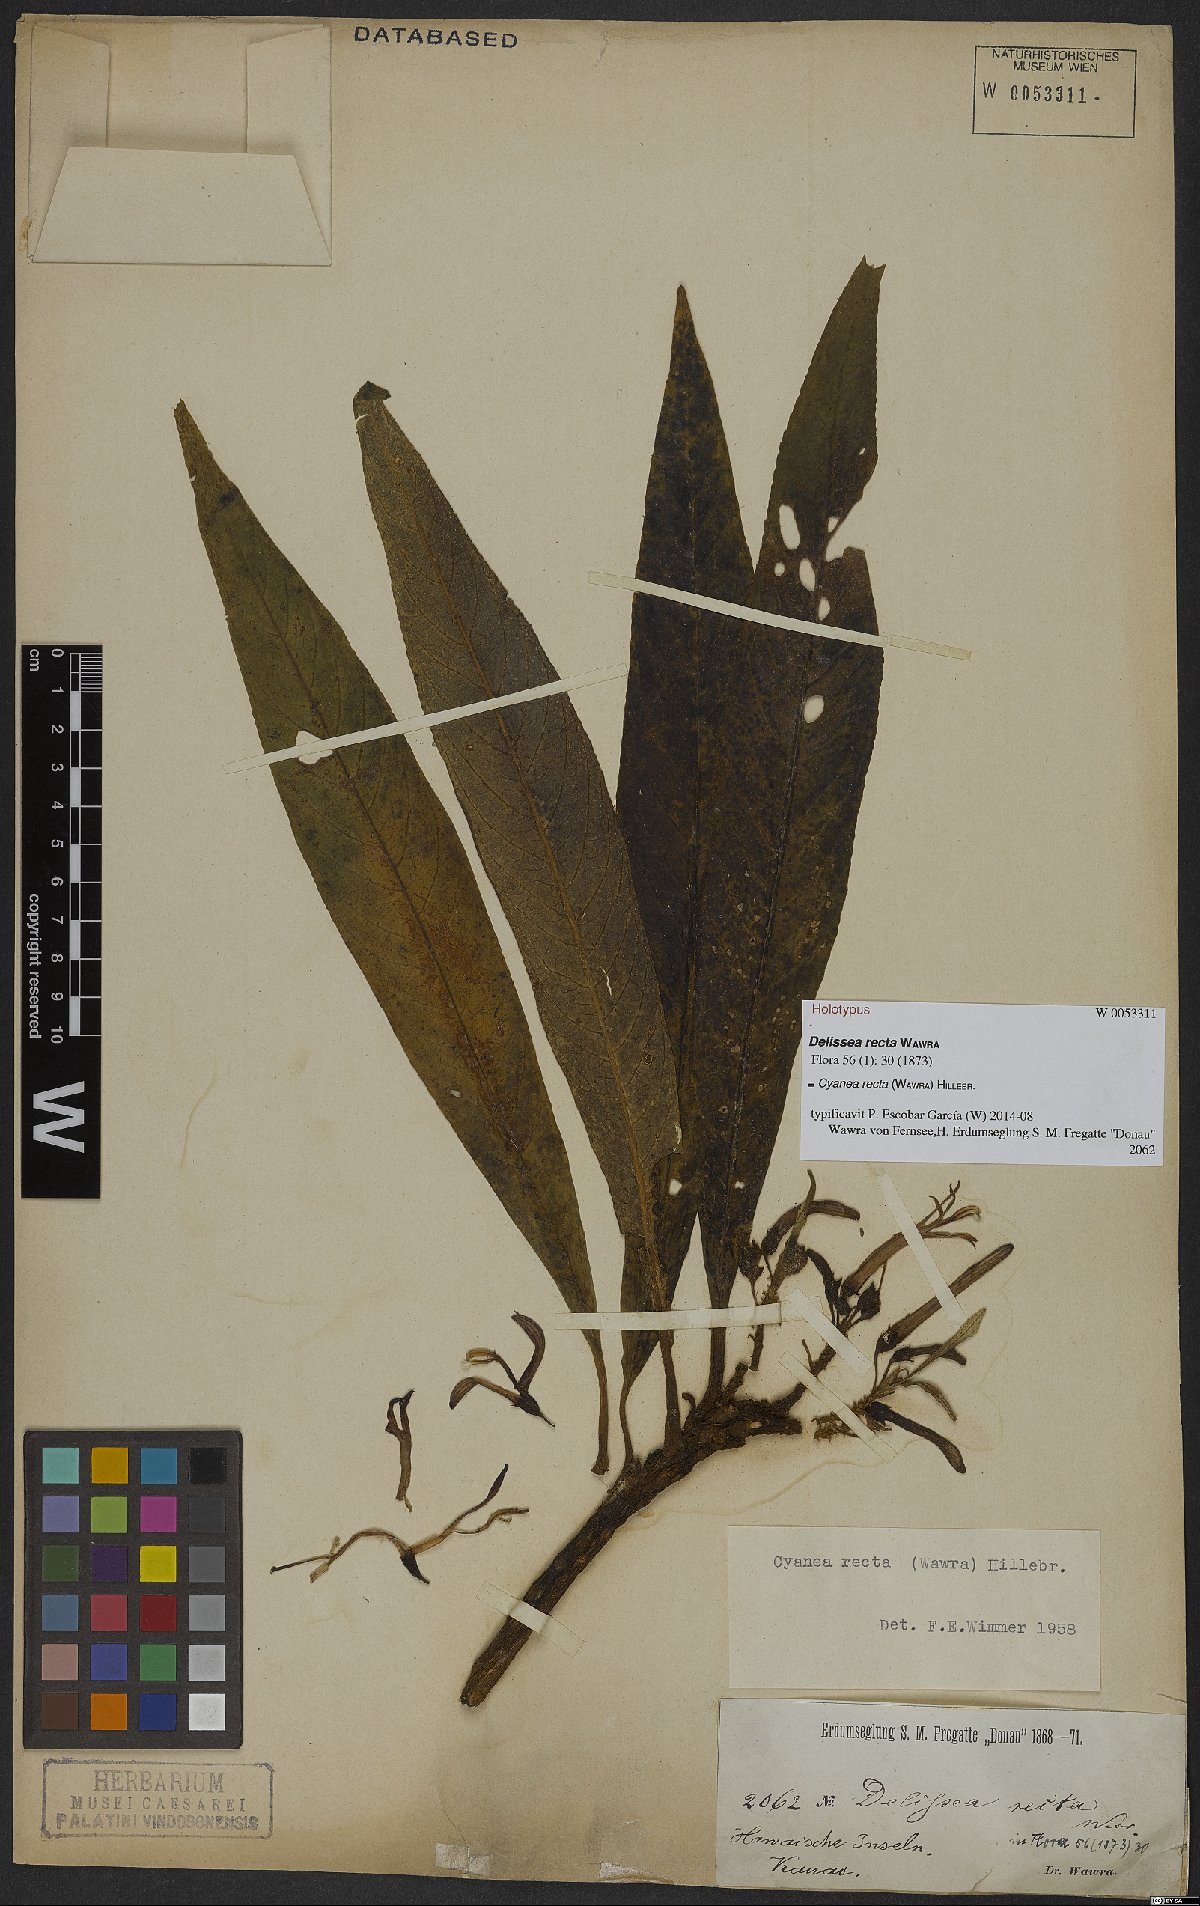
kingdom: Plantae
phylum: Tracheophyta
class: Magnoliopsida
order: Asterales
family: Campanulaceae
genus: Cyanea
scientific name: Cyanea recta
